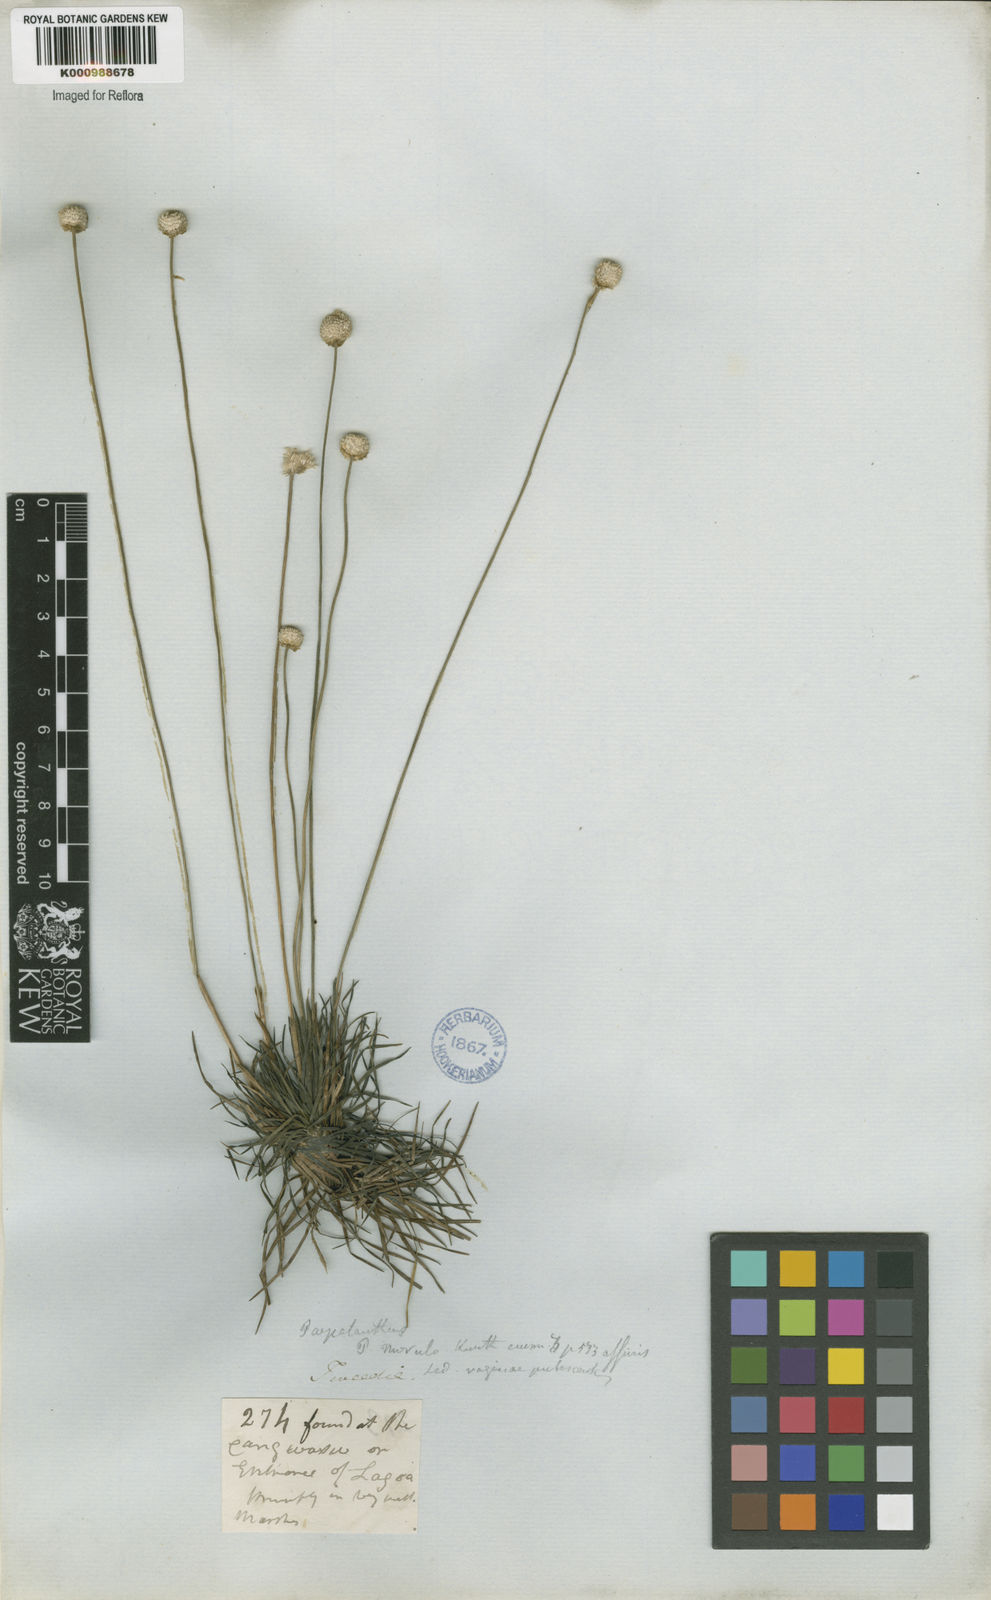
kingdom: Plantae
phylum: Tracheophyta
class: Liliopsida
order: Poales
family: Eriocaulaceae
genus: Syngonanthus
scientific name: Syngonanthus chrysanthus
